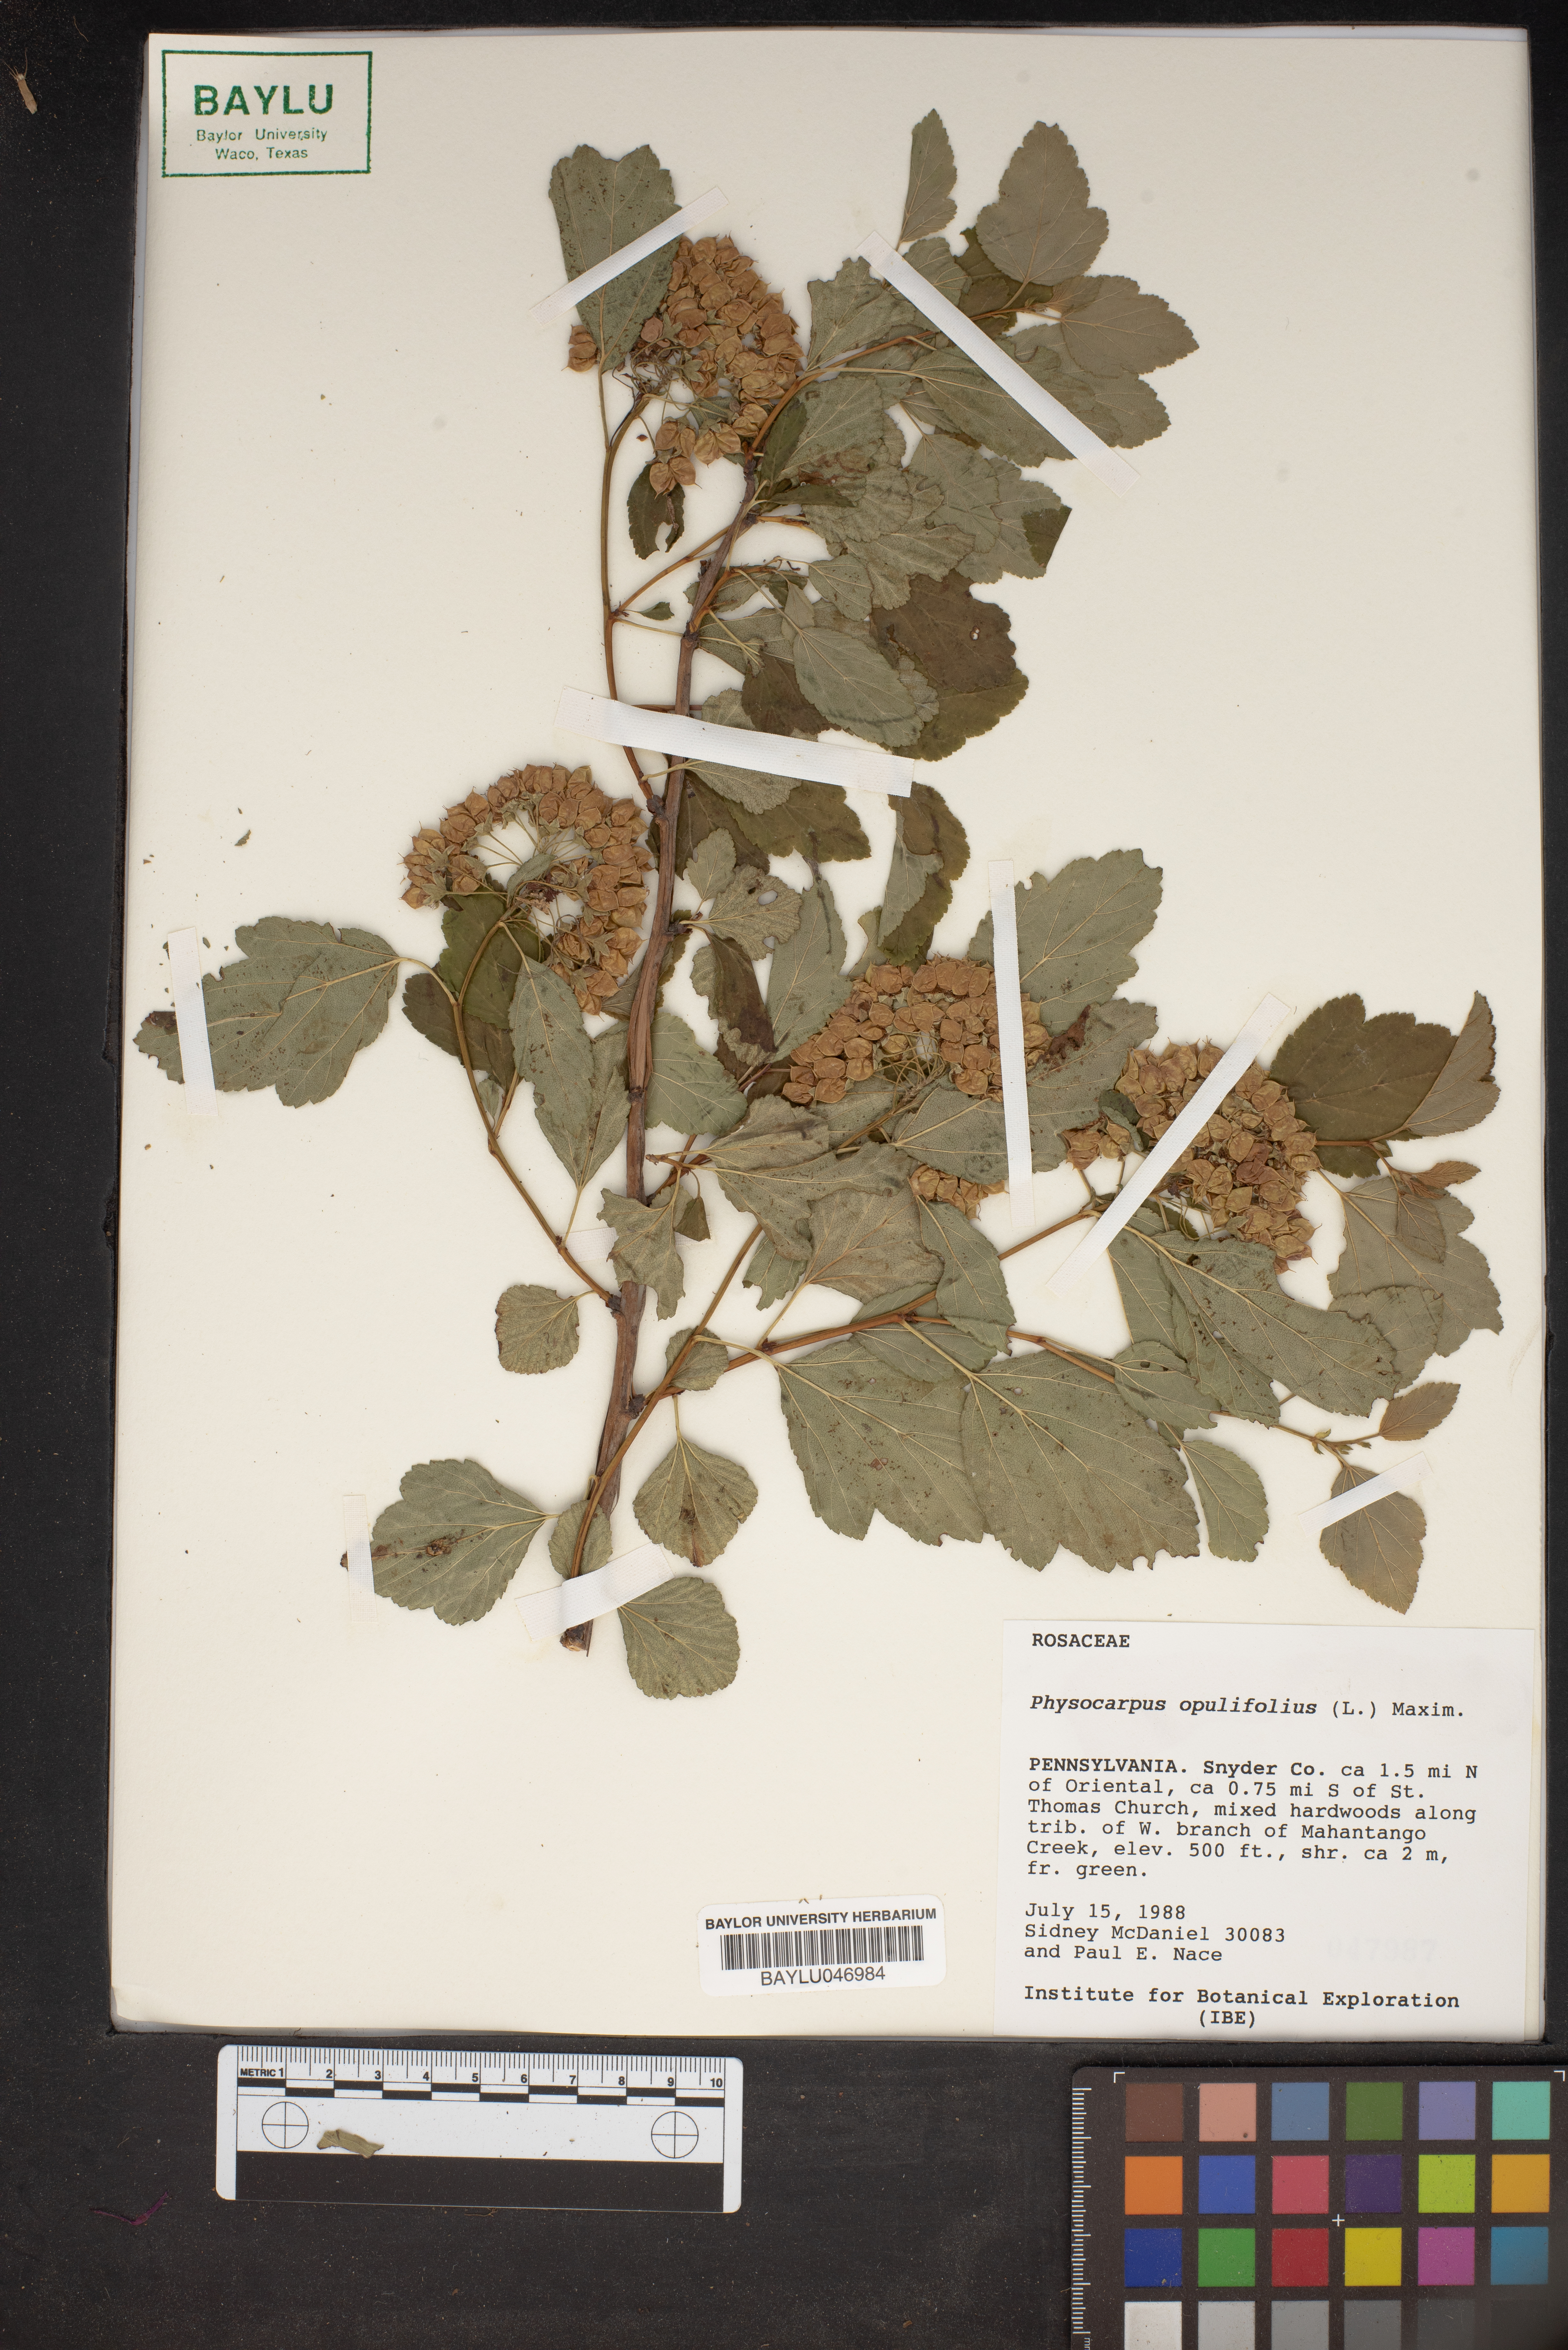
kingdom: Plantae
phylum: Tracheophyta
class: Magnoliopsida
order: Rosales
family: Rosaceae
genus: Physocarpus
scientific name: Physocarpus opulifolius
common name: Ninebark
